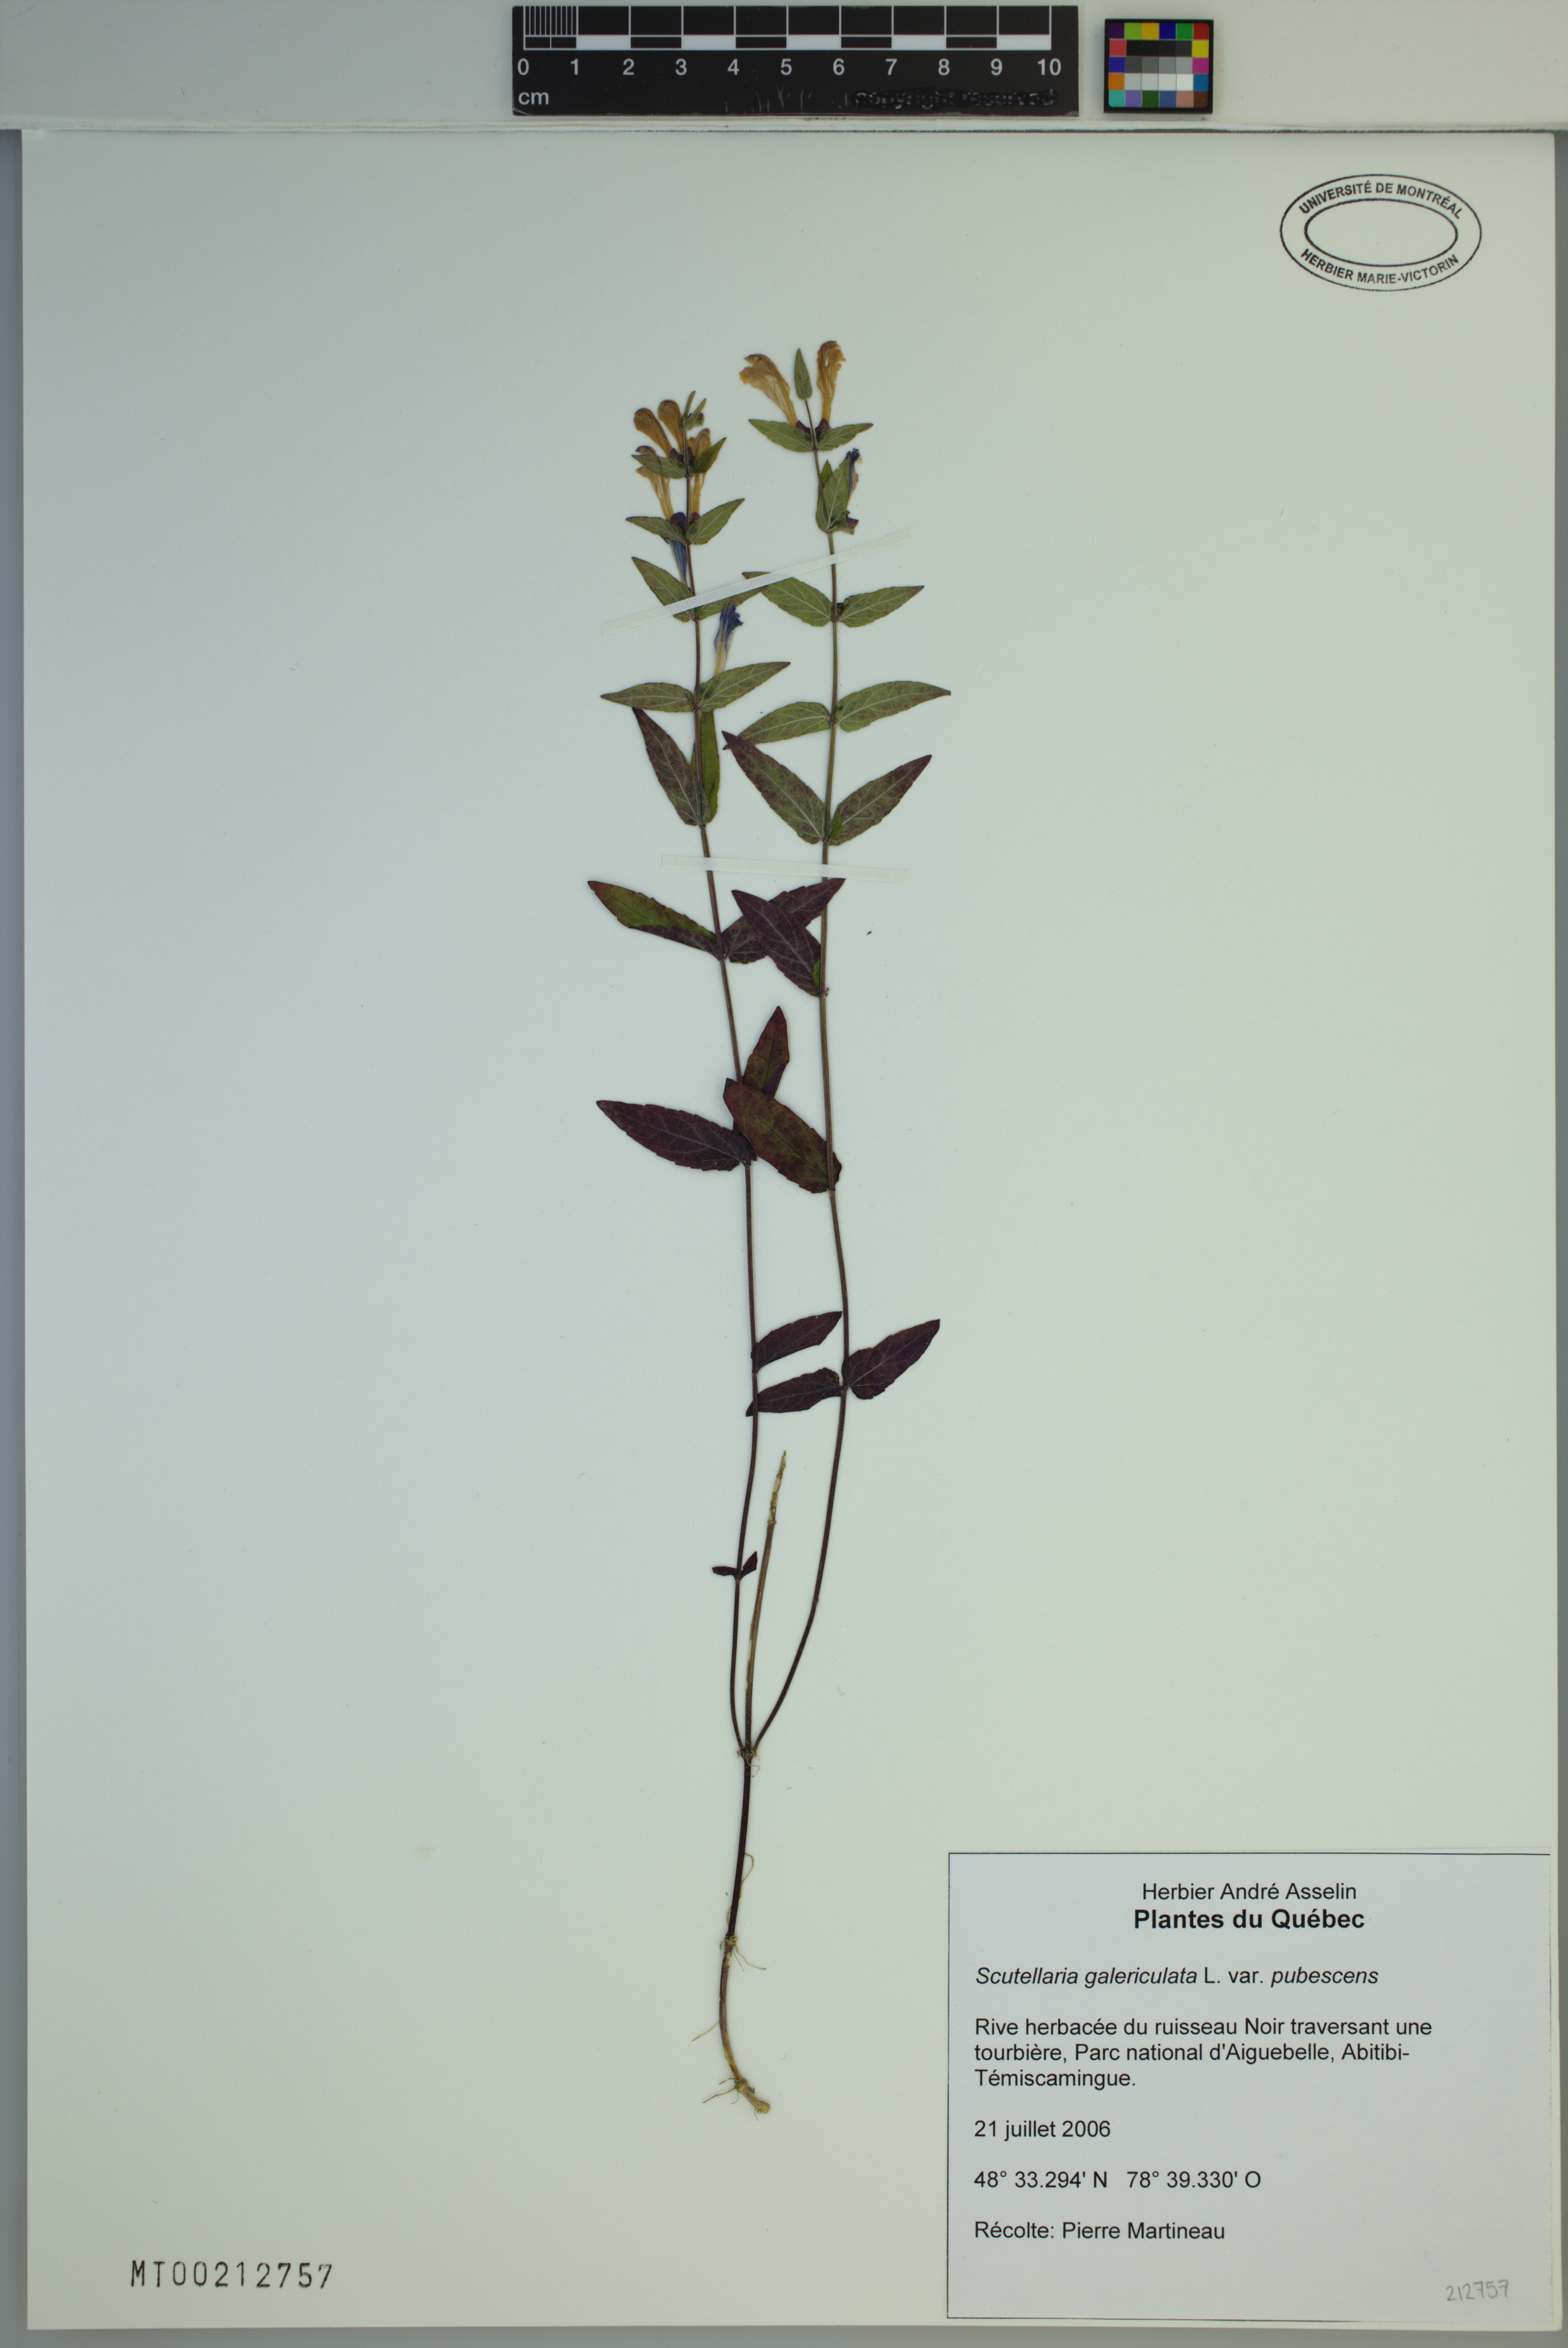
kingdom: Plantae
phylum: Tracheophyta
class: Magnoliopsida
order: Lamiales
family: Lamiaceae
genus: Scutellaria
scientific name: Scutellaria nicholsonii
